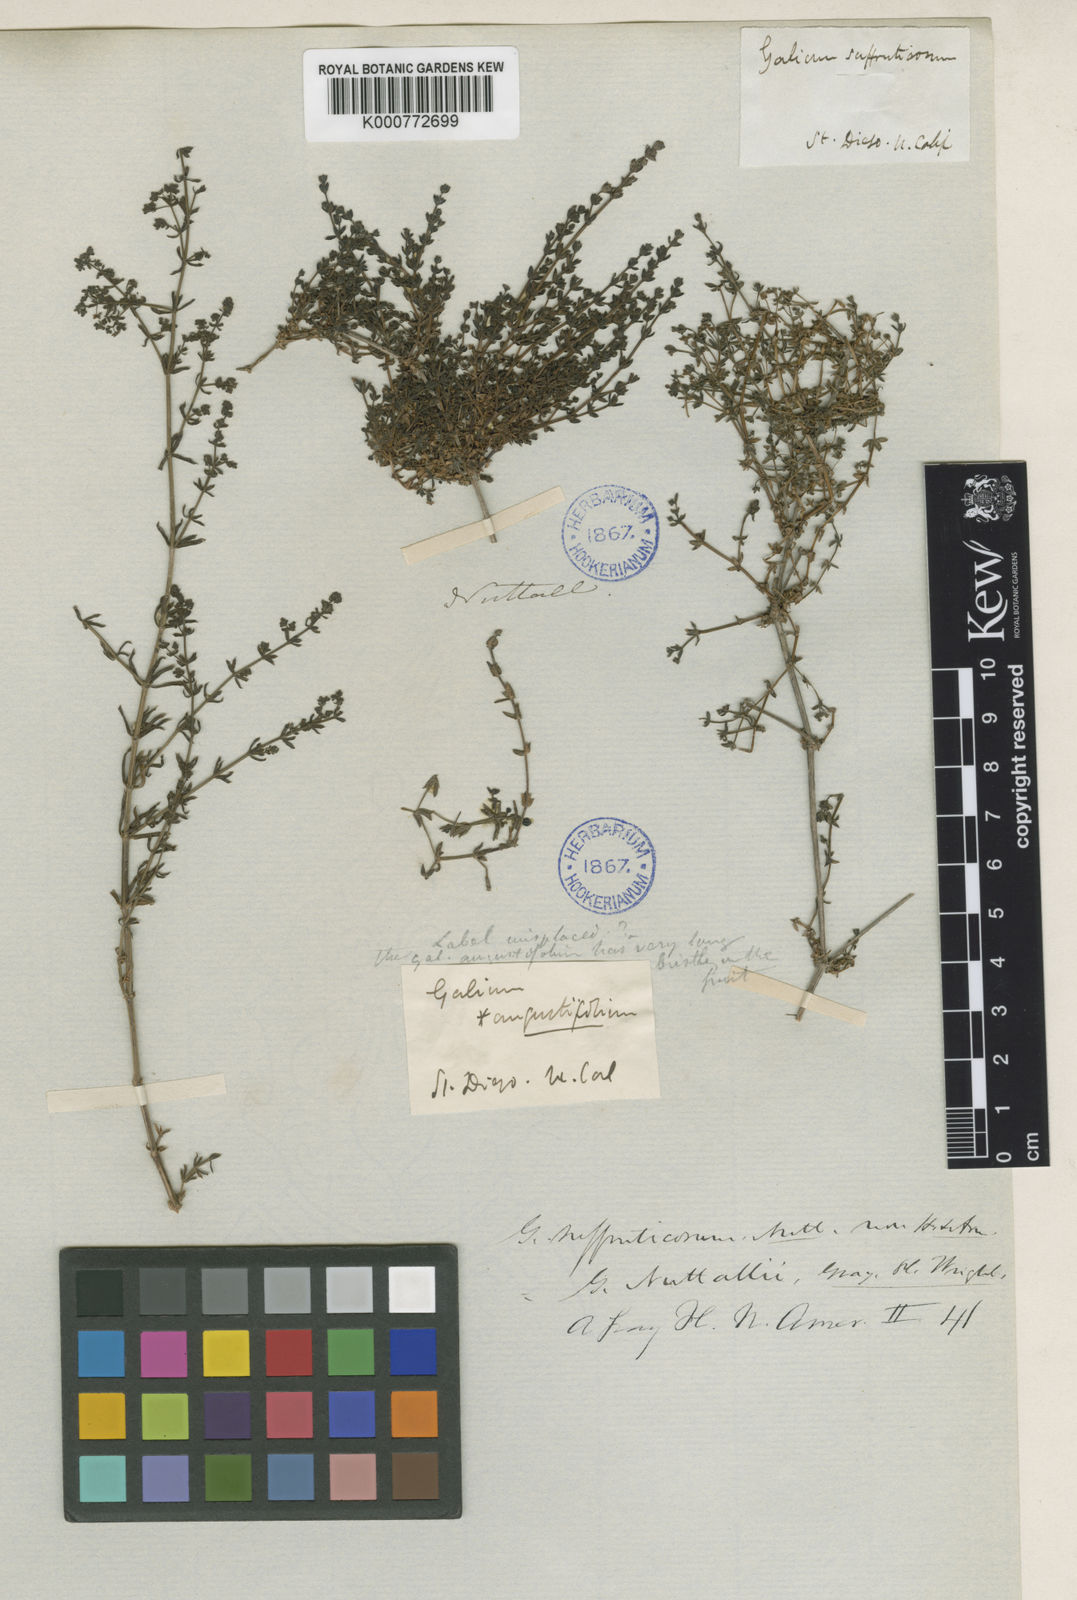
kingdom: Plantae
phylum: Tracheophyta
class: Magnoliopsida
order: Gentianales
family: Rubiaceae
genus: Galium
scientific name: Galium nuttallii
